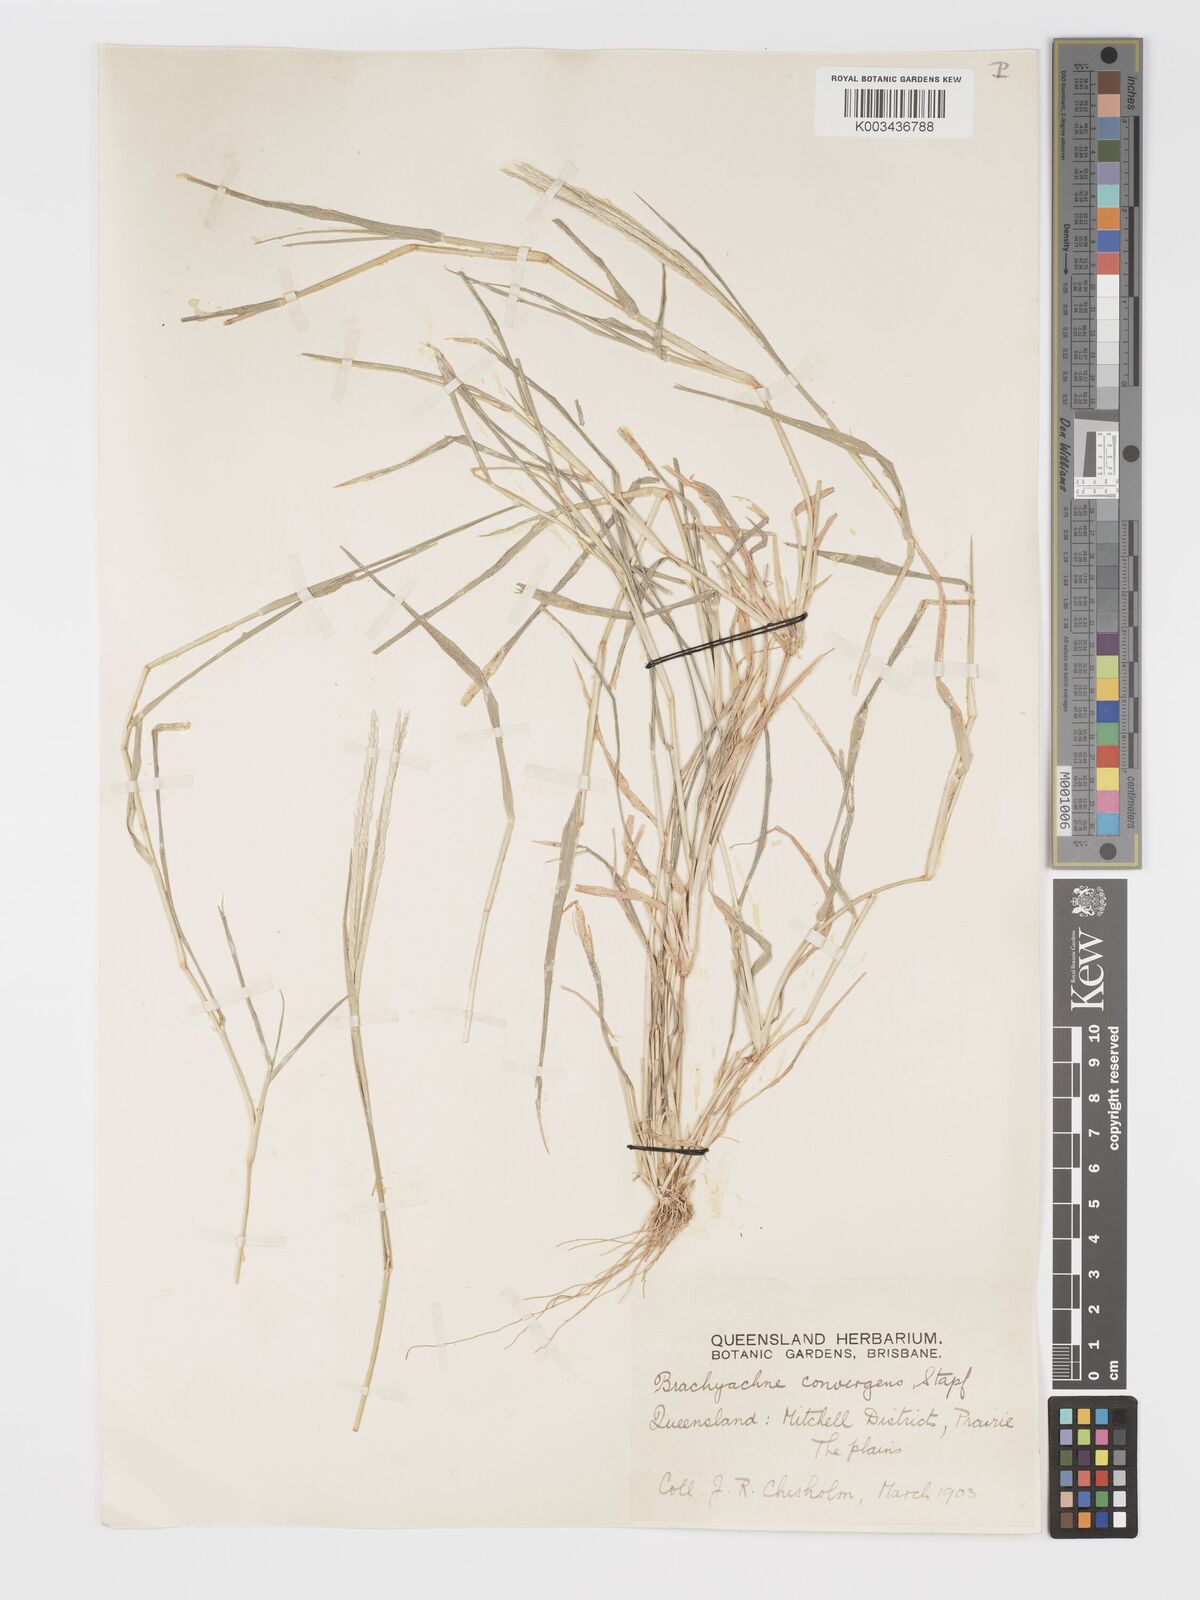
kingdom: Plantae
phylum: Tracheophyta
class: Liliopsida
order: Poales
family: Poaceae
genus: Cynodon
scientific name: Cynodon convergens
